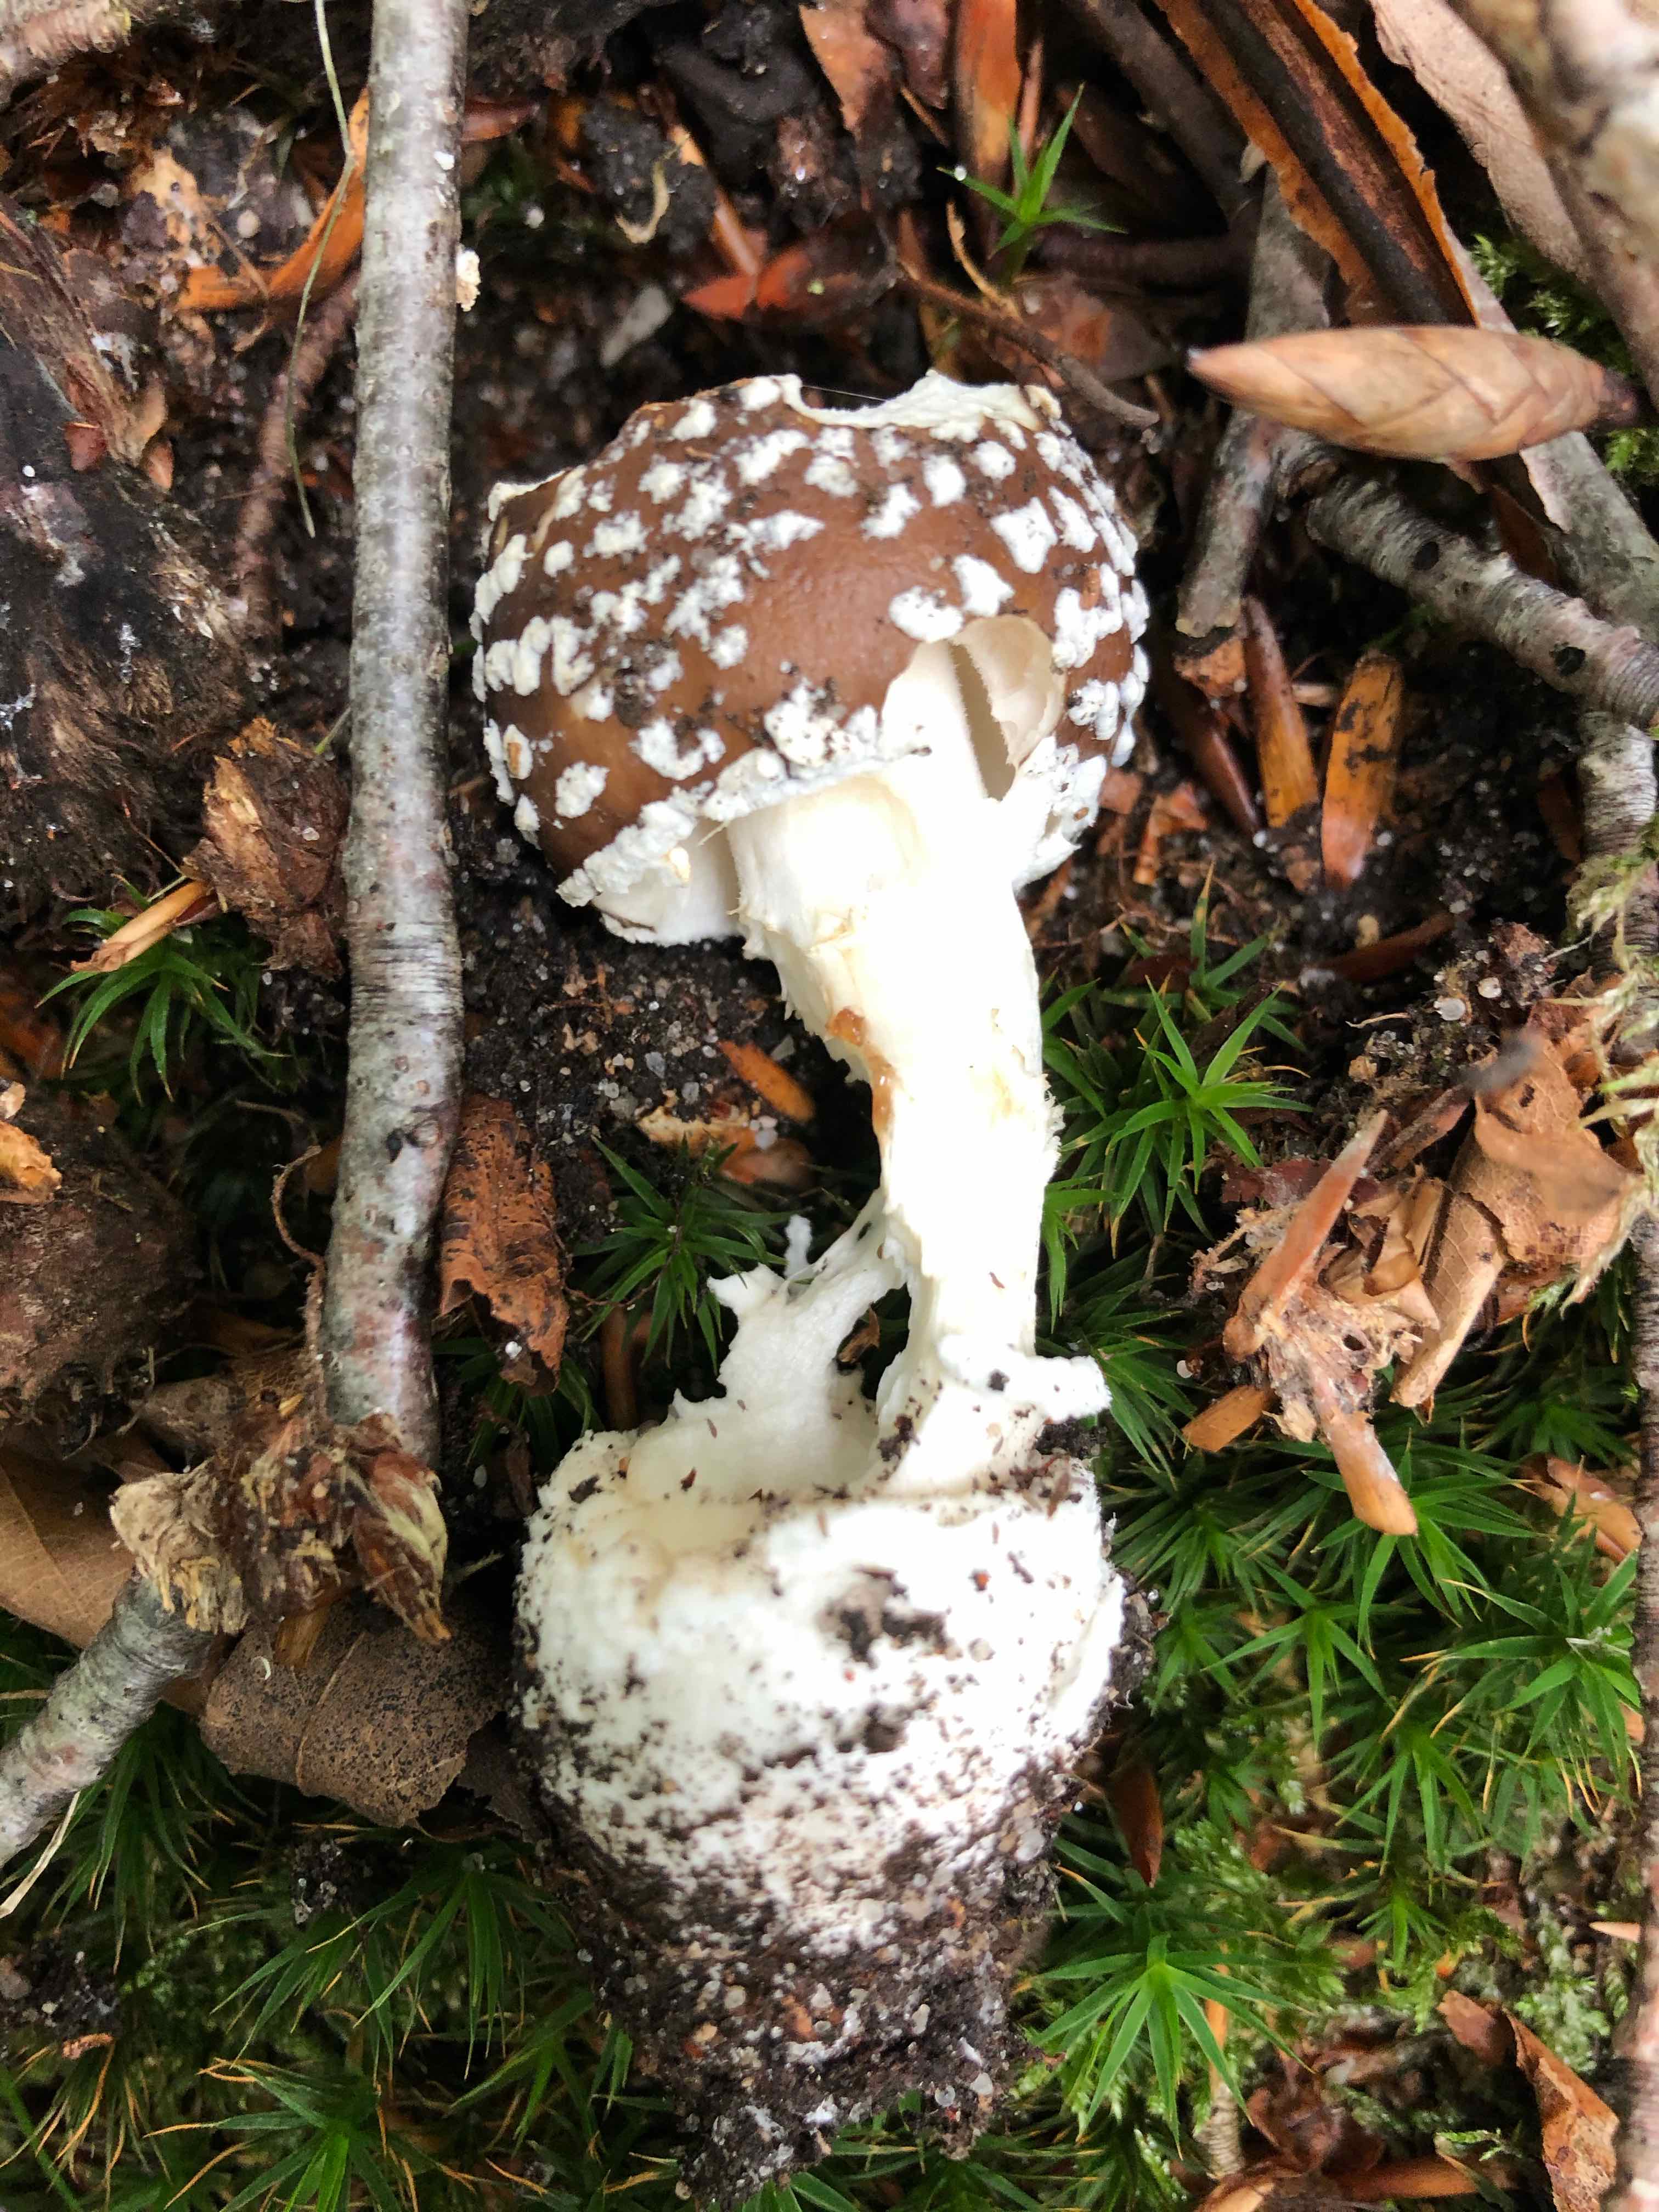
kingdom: Fungi
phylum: Basidiomycota
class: Agaricomycetes
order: Agaricales
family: Amanitaceae
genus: Amanita
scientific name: Amanita pantherina
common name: panter-fluesvamp
